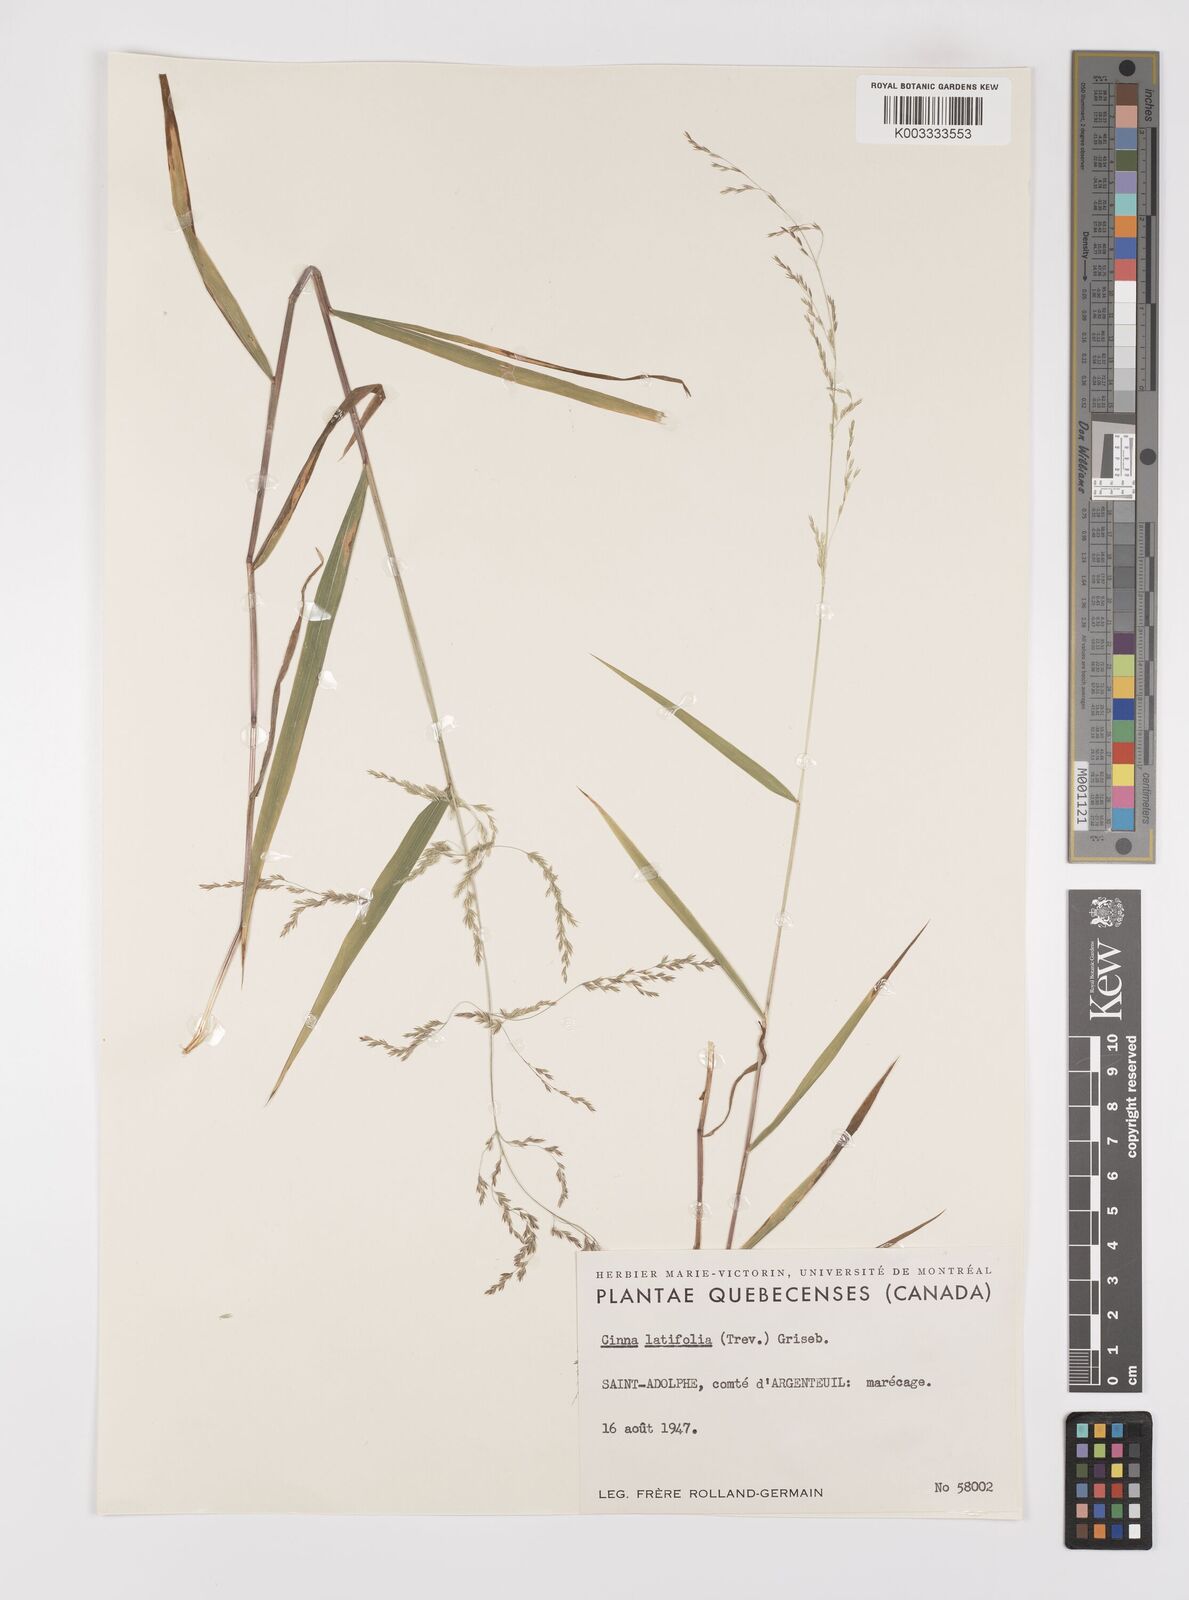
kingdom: Plantae
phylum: Tracheophyta
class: Liliopsida
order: Poales
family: Poaceae
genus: Cinna
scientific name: Cinna latifolia
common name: Drooping woodreed
